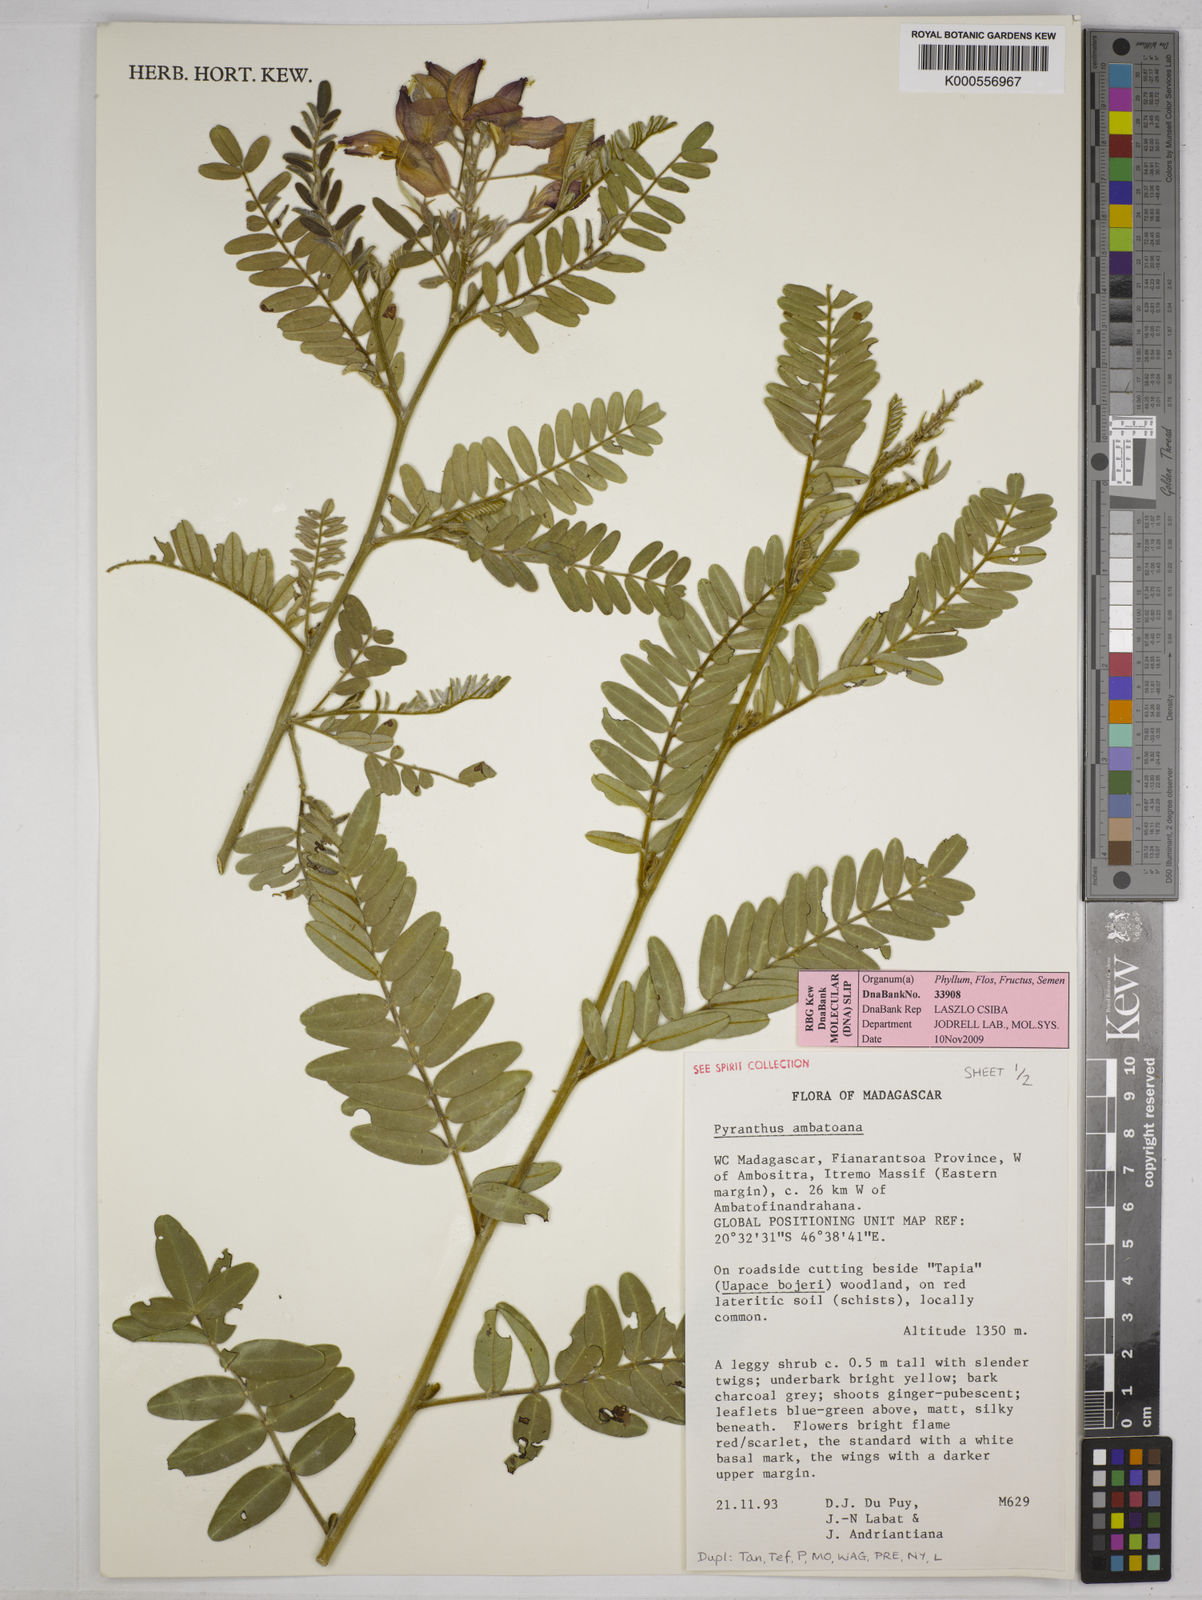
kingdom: Plantae
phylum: Tracheophyta
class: Magnoliopsida
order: Fabales
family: Fabaceae
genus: Pyranthus
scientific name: Pyranthus ambatoanus
